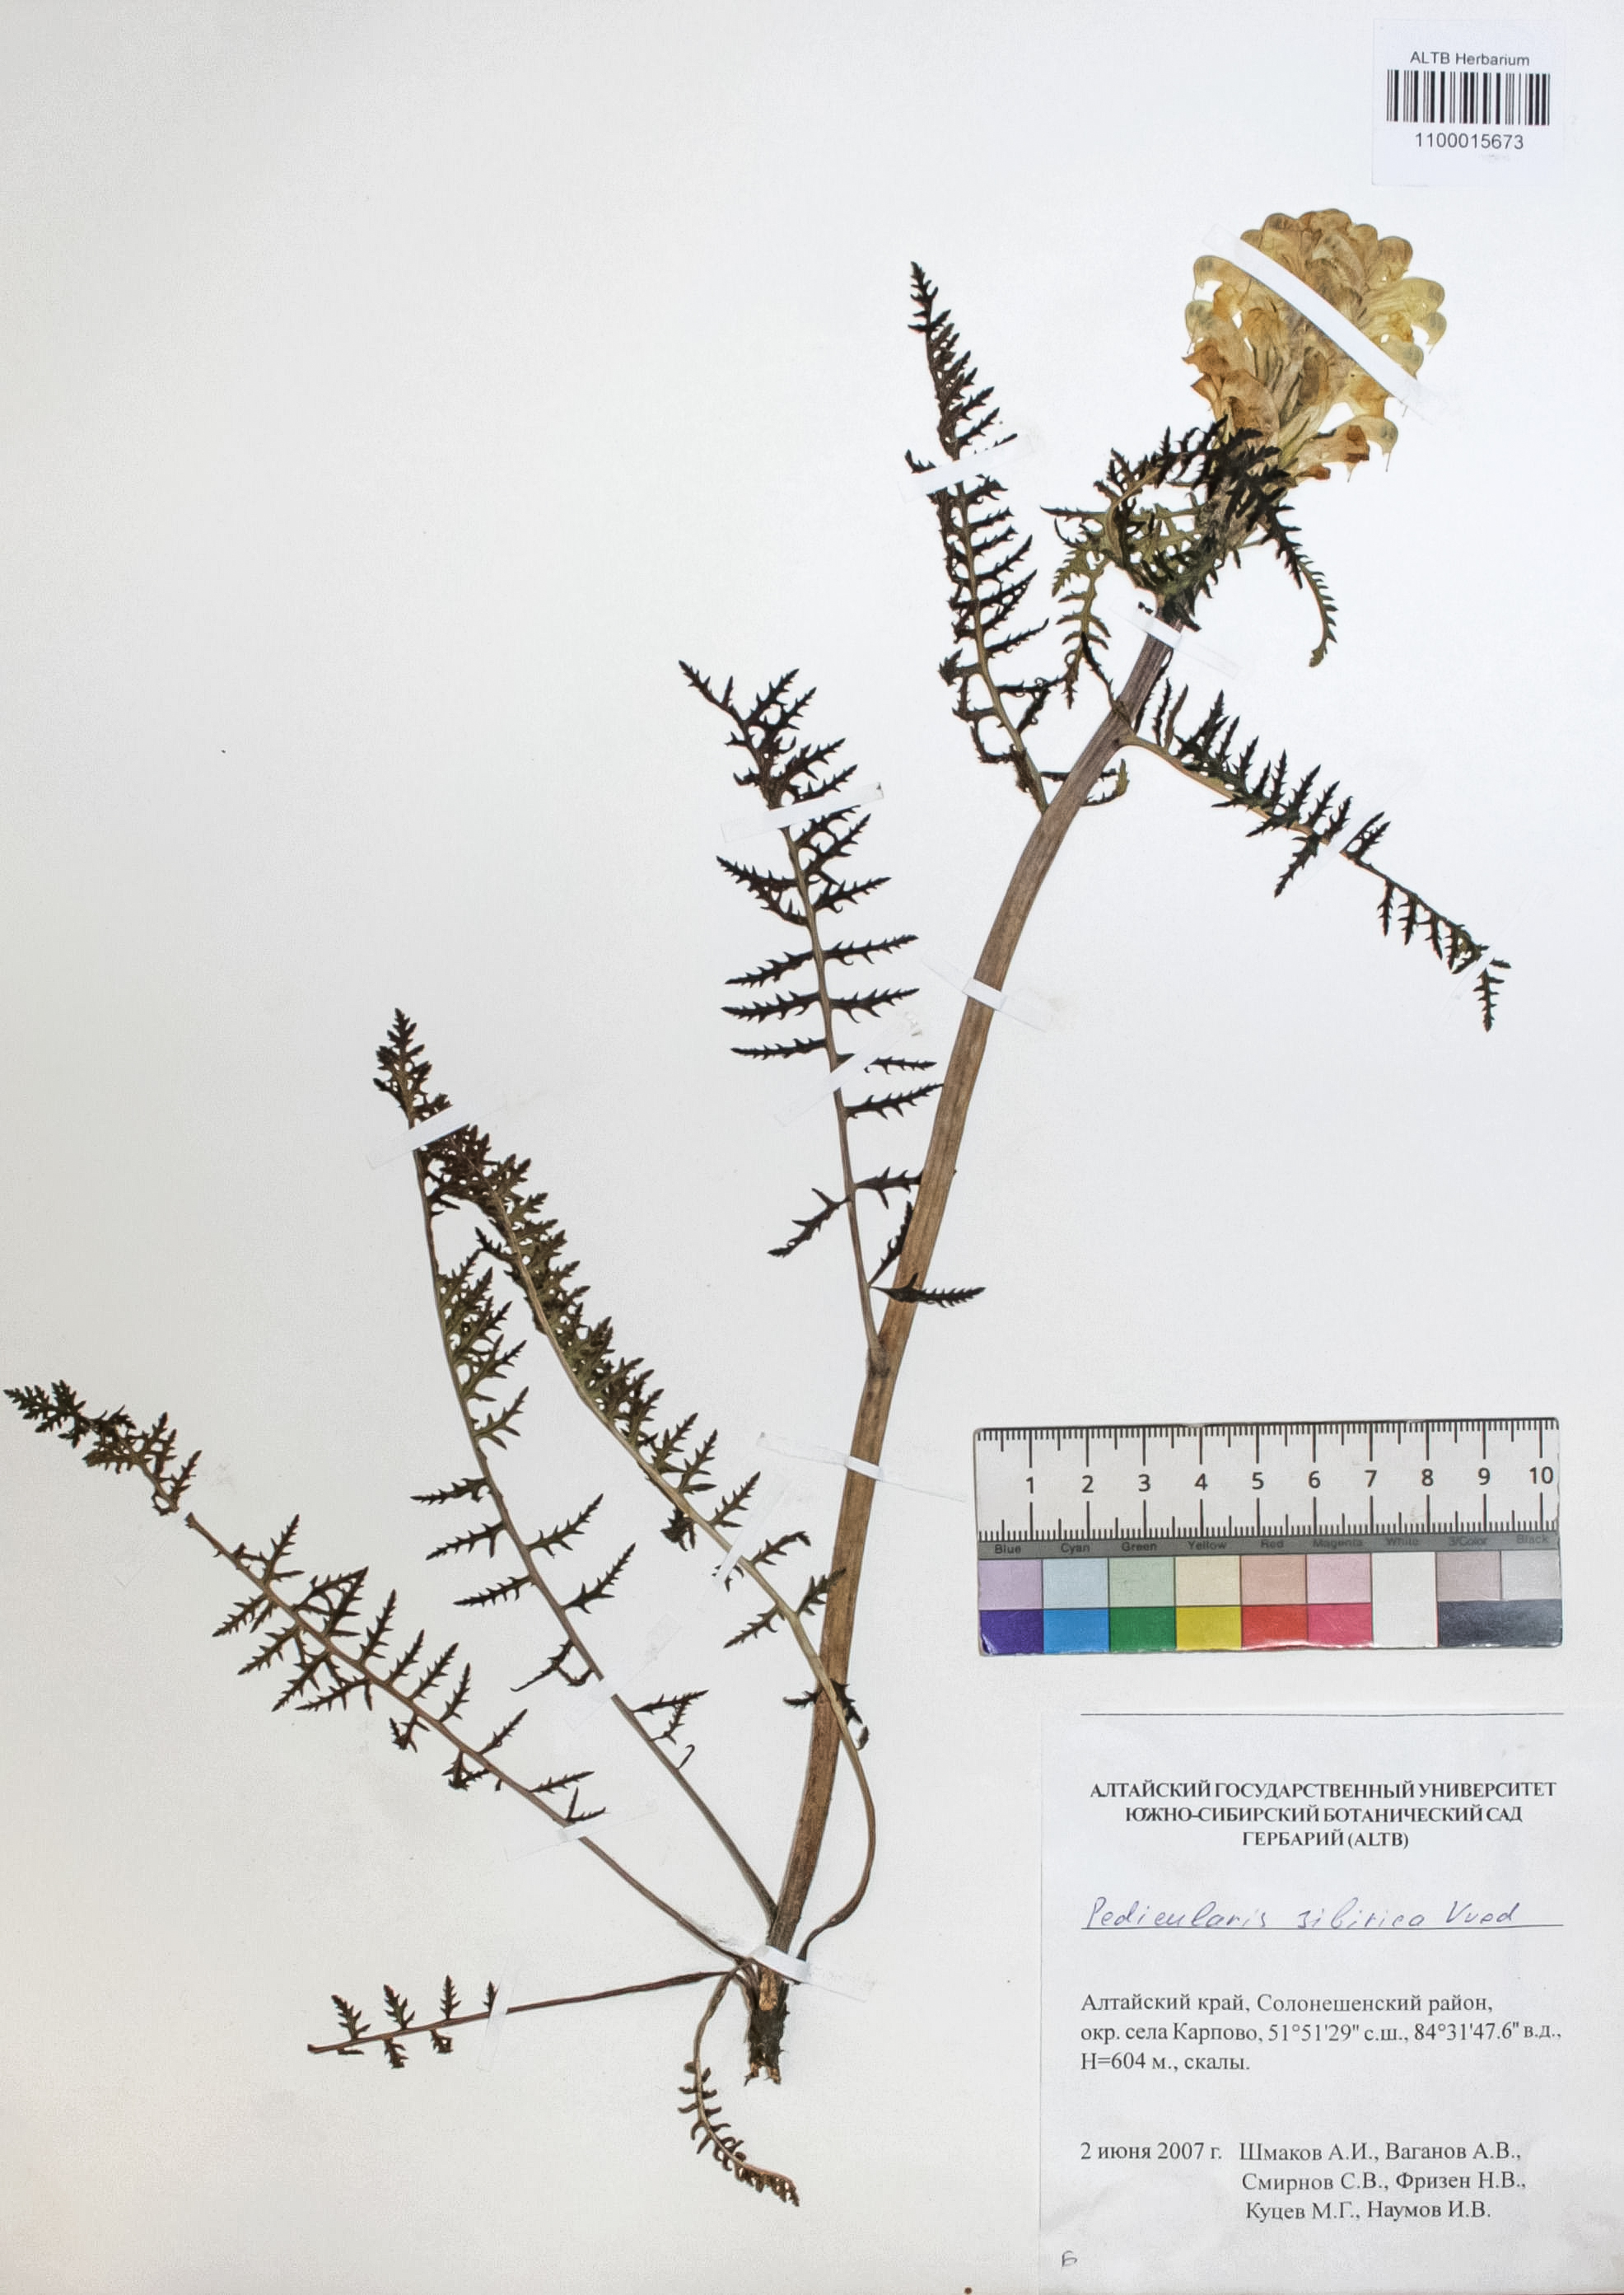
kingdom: Plantae
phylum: Tracheophyta
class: Magnoliopsida
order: Lamiales
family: Orobanchaceae
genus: Pedicularis
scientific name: Pedicularis sibirica
